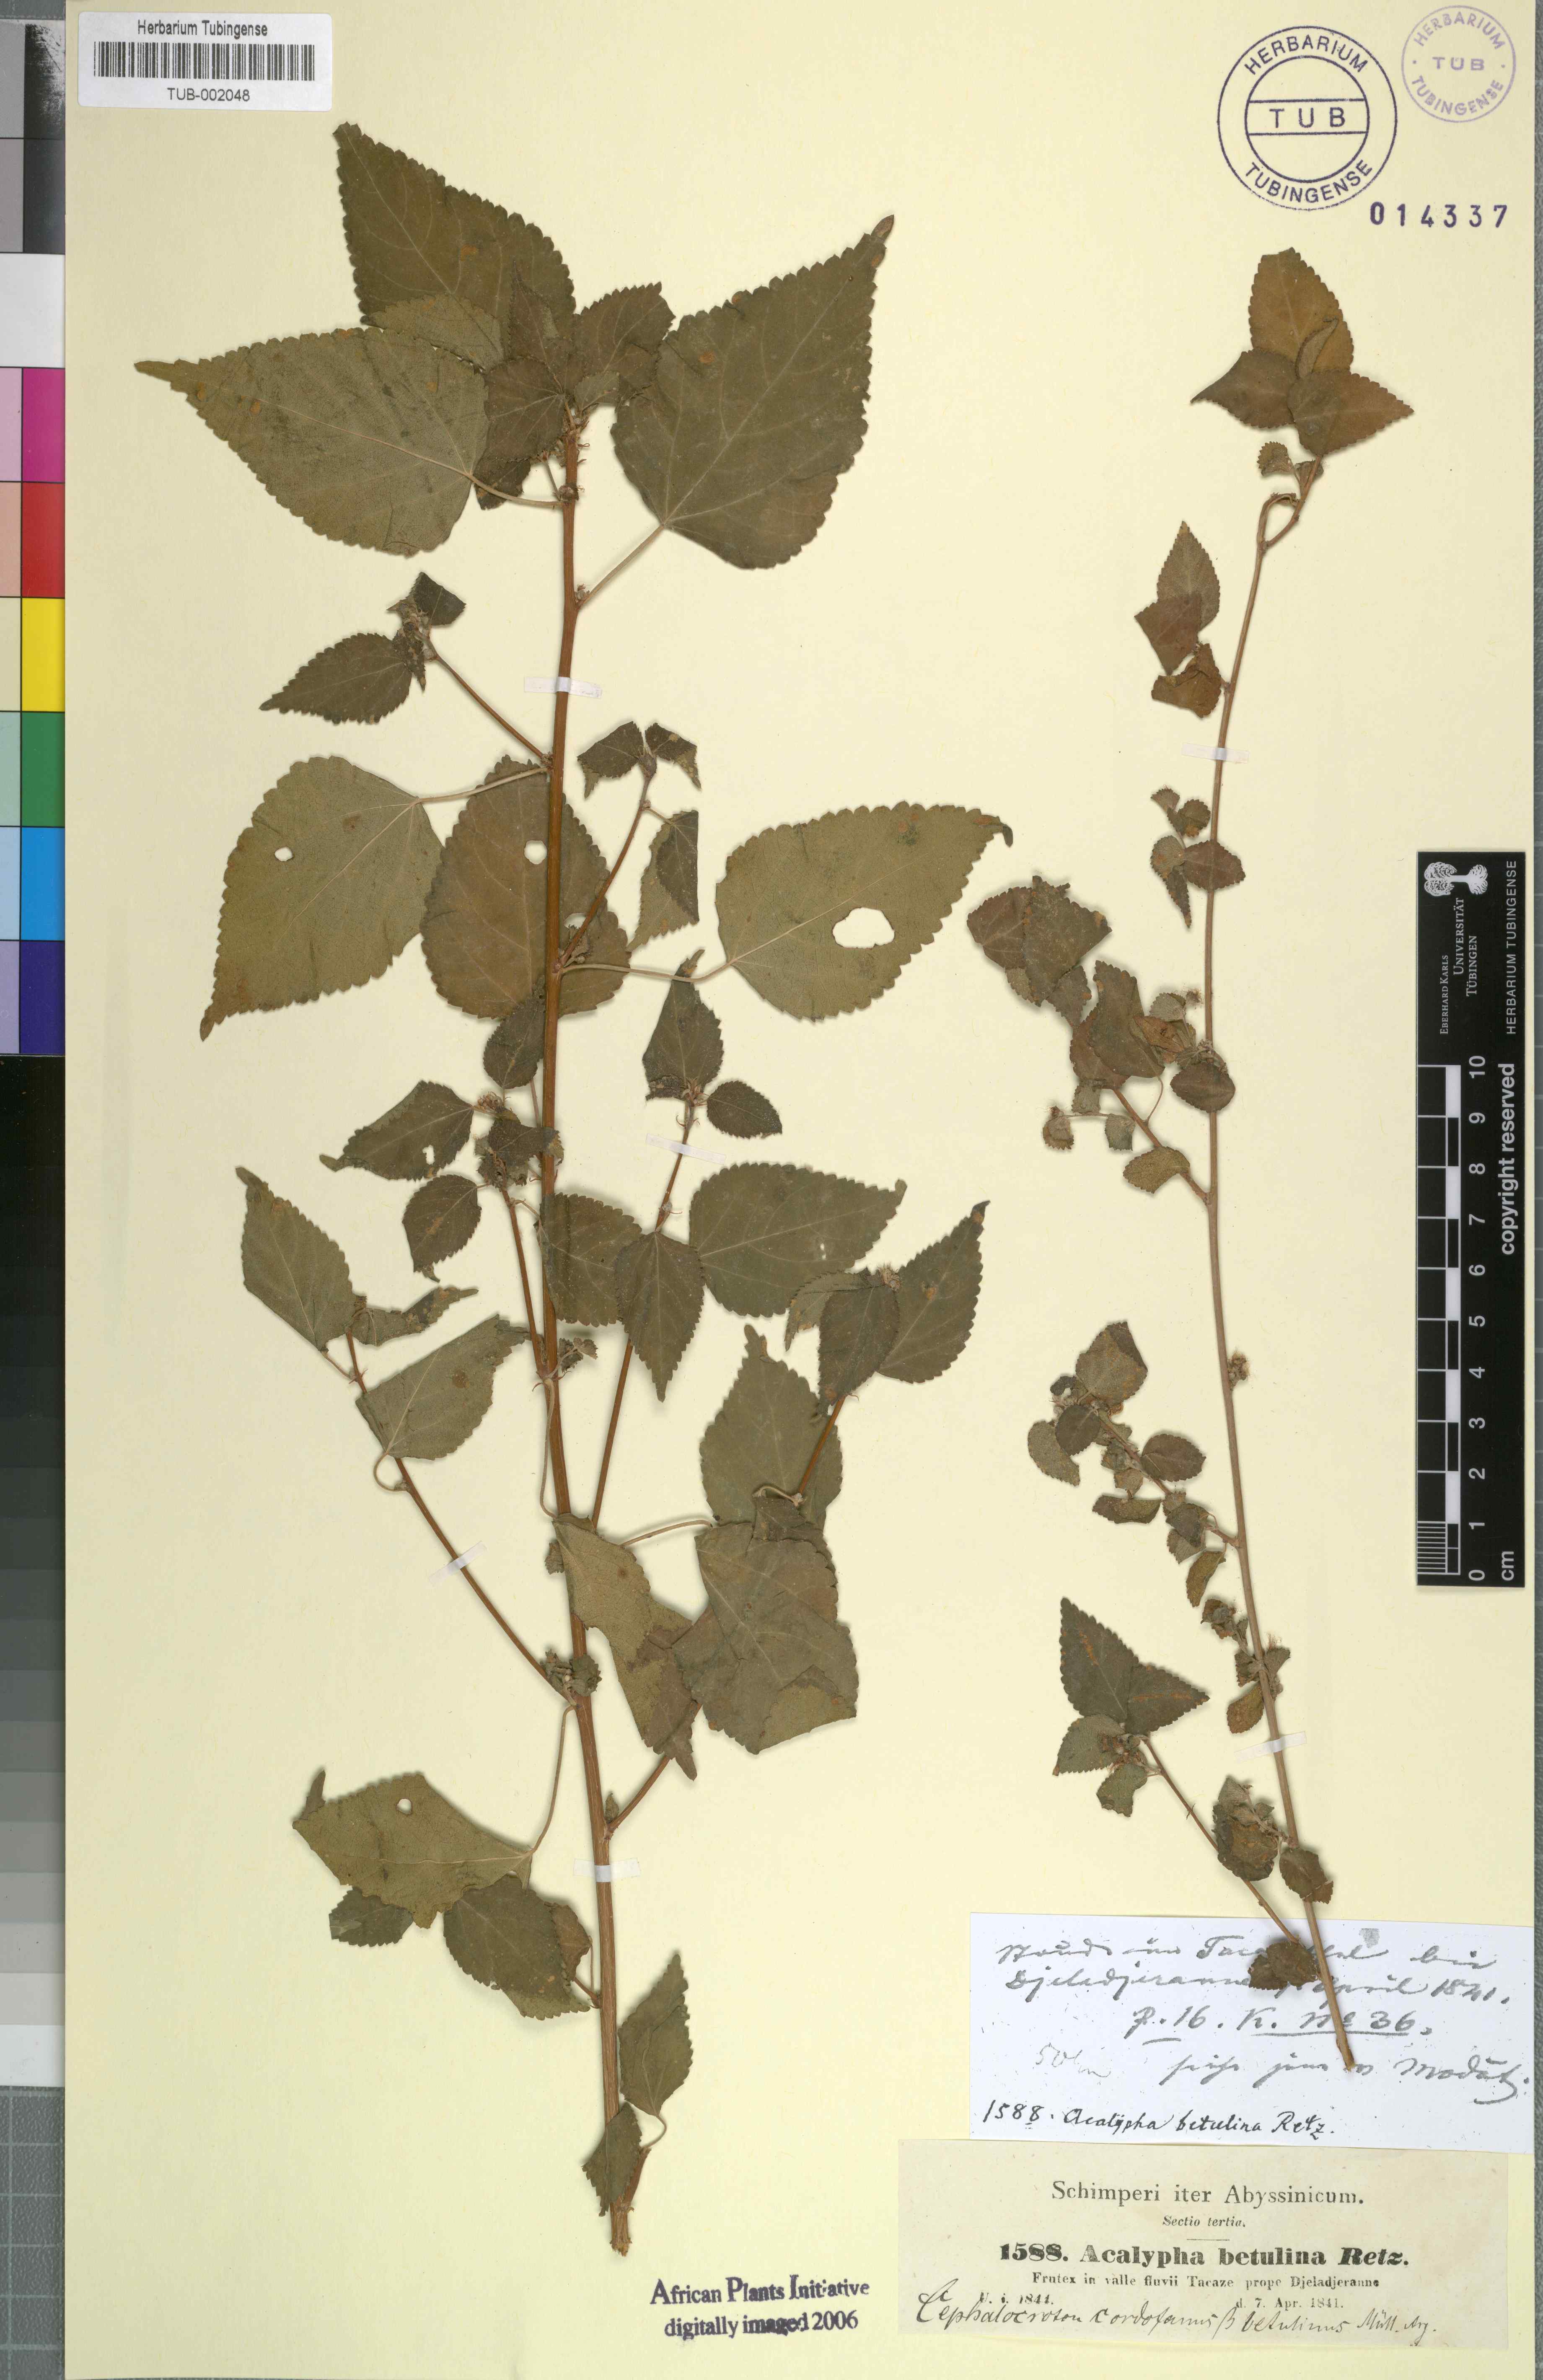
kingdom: Plantae
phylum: Tracheophyta
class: Magnoliopsida
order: Malpighiales
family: Euphorbiaceae
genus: Acalypha
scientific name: Acalypha fruticosa
